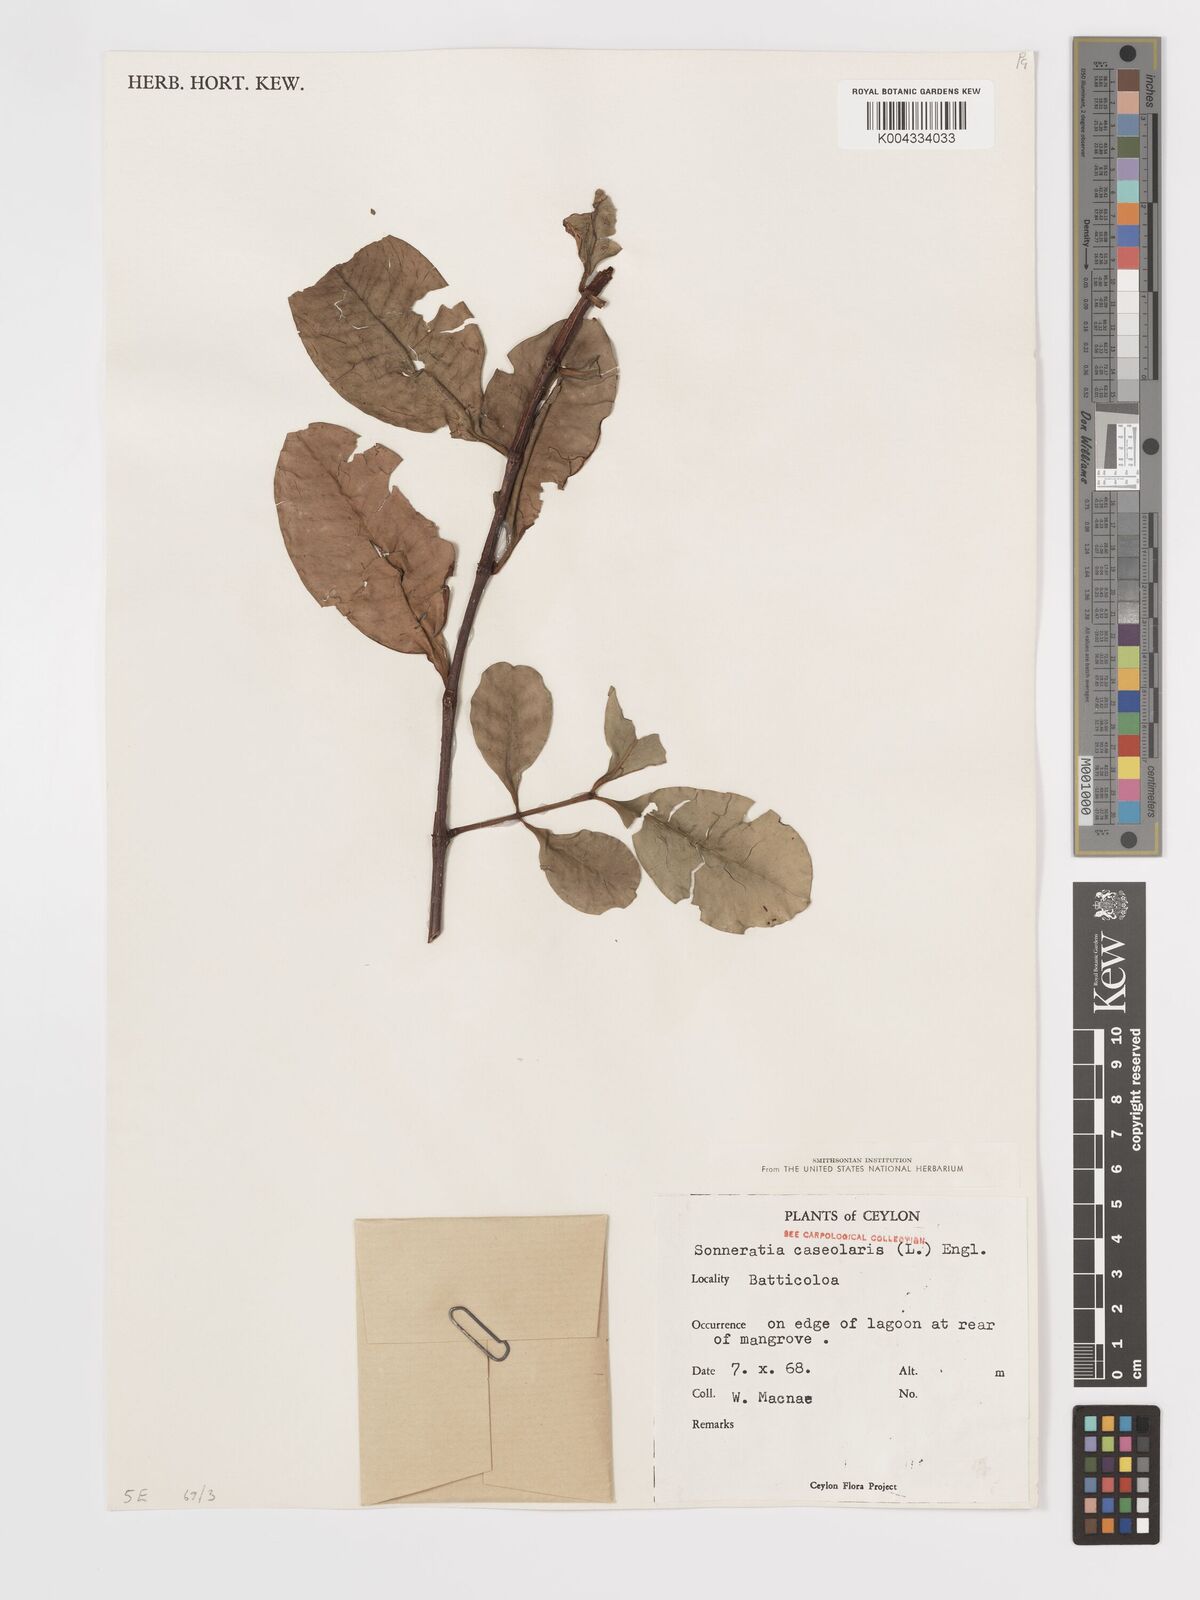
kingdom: Plantae
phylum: Tracheophyta
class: Magnoliopsida
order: Myrtales
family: Lythraceae
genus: Sonneratia
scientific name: Sonneratia caseolaris
